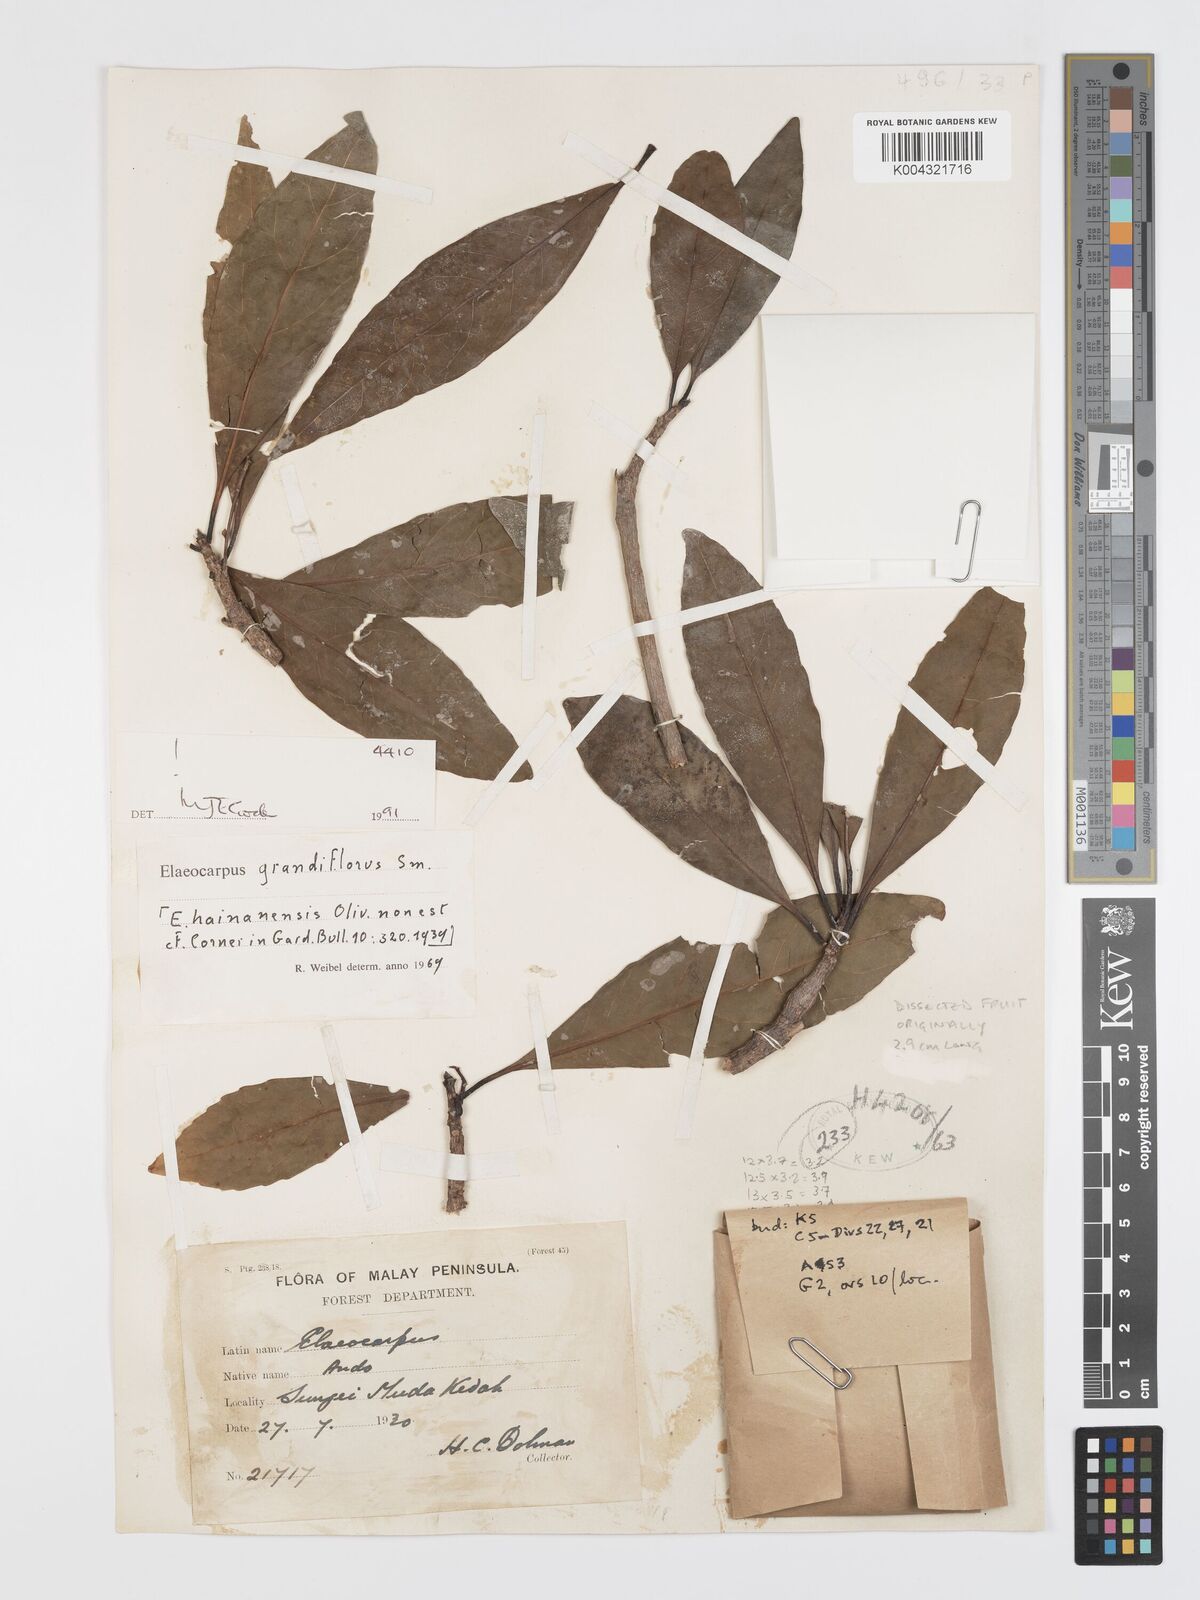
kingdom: Plantae
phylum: Tracheophyta
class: Magnoliopsida
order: Oxalidales
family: Elaeocarpaceae
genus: Elaeocarpus
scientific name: Elaeocarpus grandiflorus
